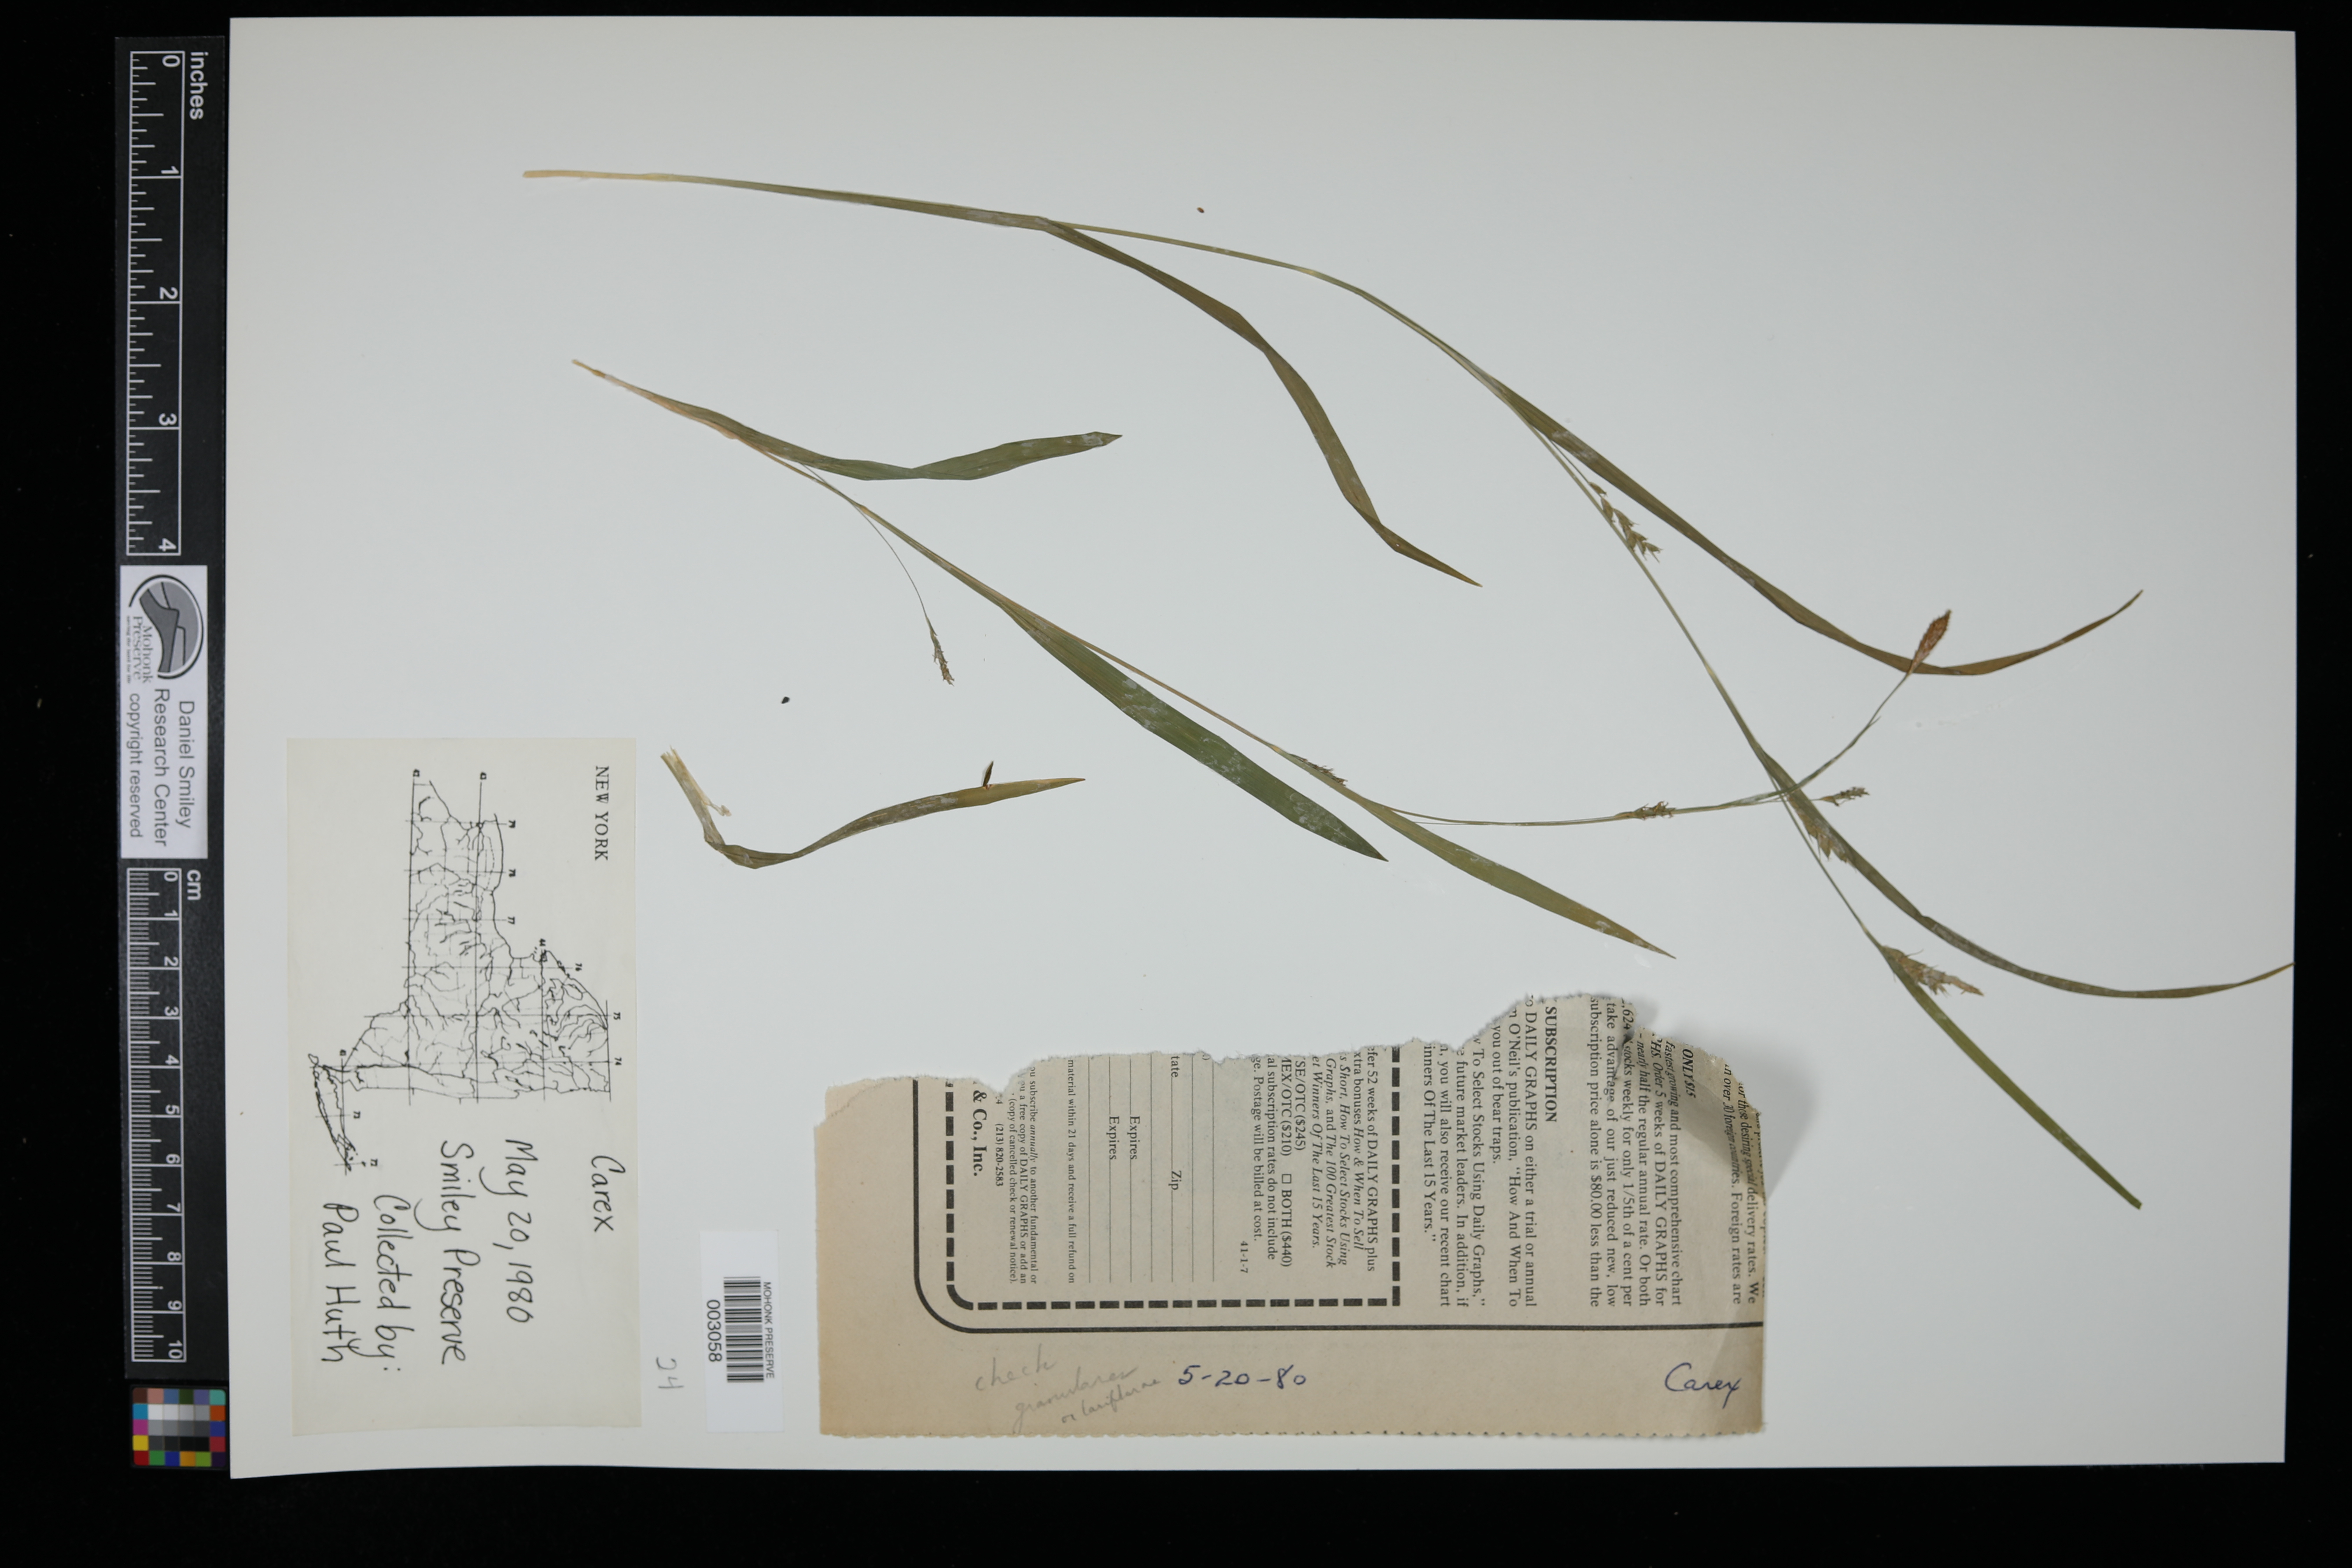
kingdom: Plantae
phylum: Tracheophyta
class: Liliopsida
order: Poales
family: Cyperaceae
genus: Carex
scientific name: Carex
